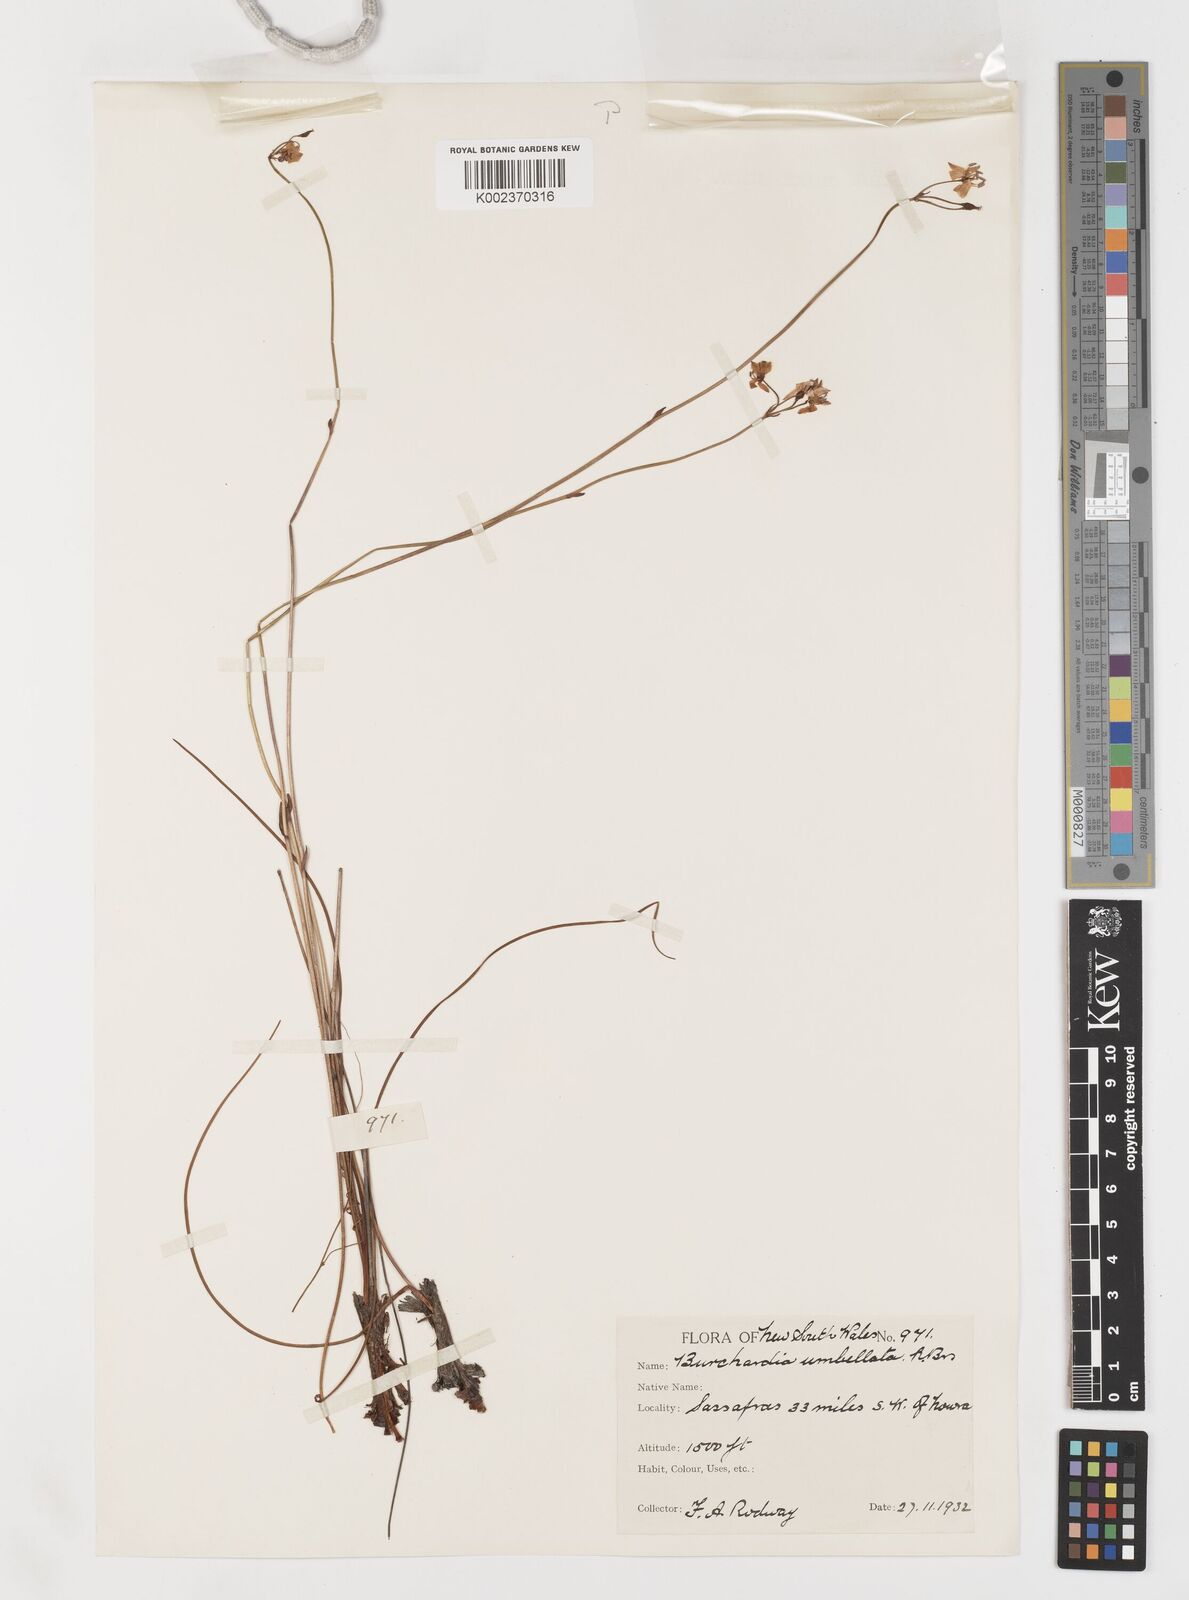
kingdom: Plantae
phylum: Tracheophyta
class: Liliopsida
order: Liliales
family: Colchicaceae
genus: Burchardia
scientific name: Burchardia umbellata
